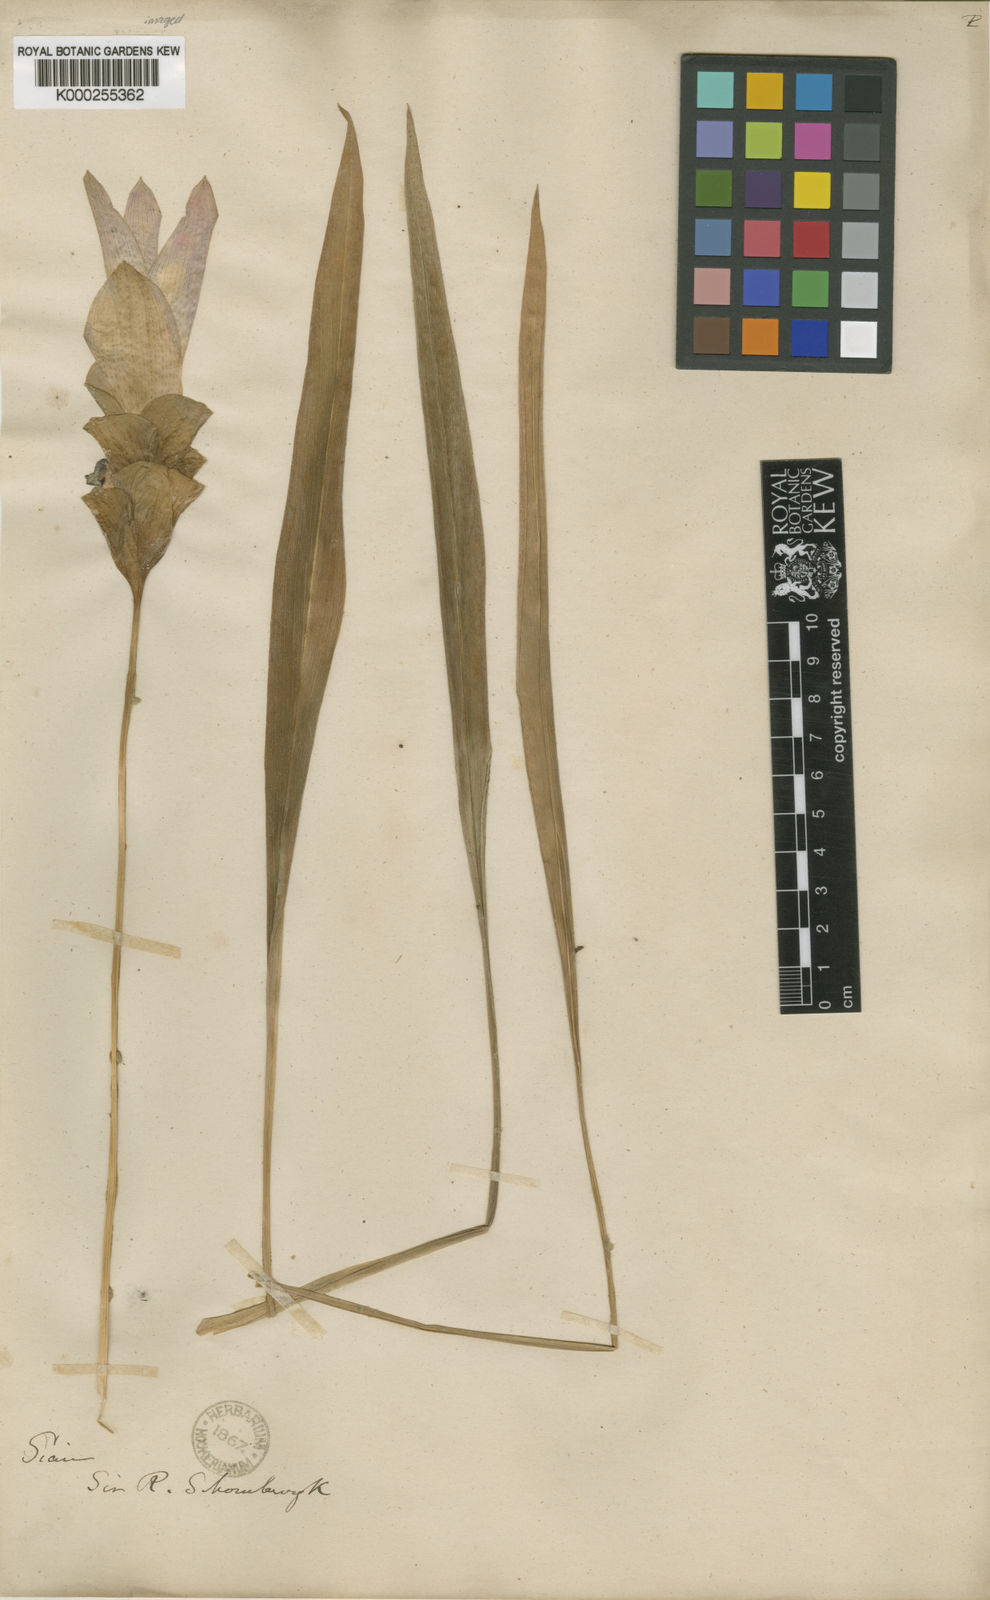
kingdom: Plantae
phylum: Tracheophyta
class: Liliopsida
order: Zingiberales
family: Zingiberaceae
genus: Curcuma
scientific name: Curcuma alismatifolia
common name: Siam tulip
